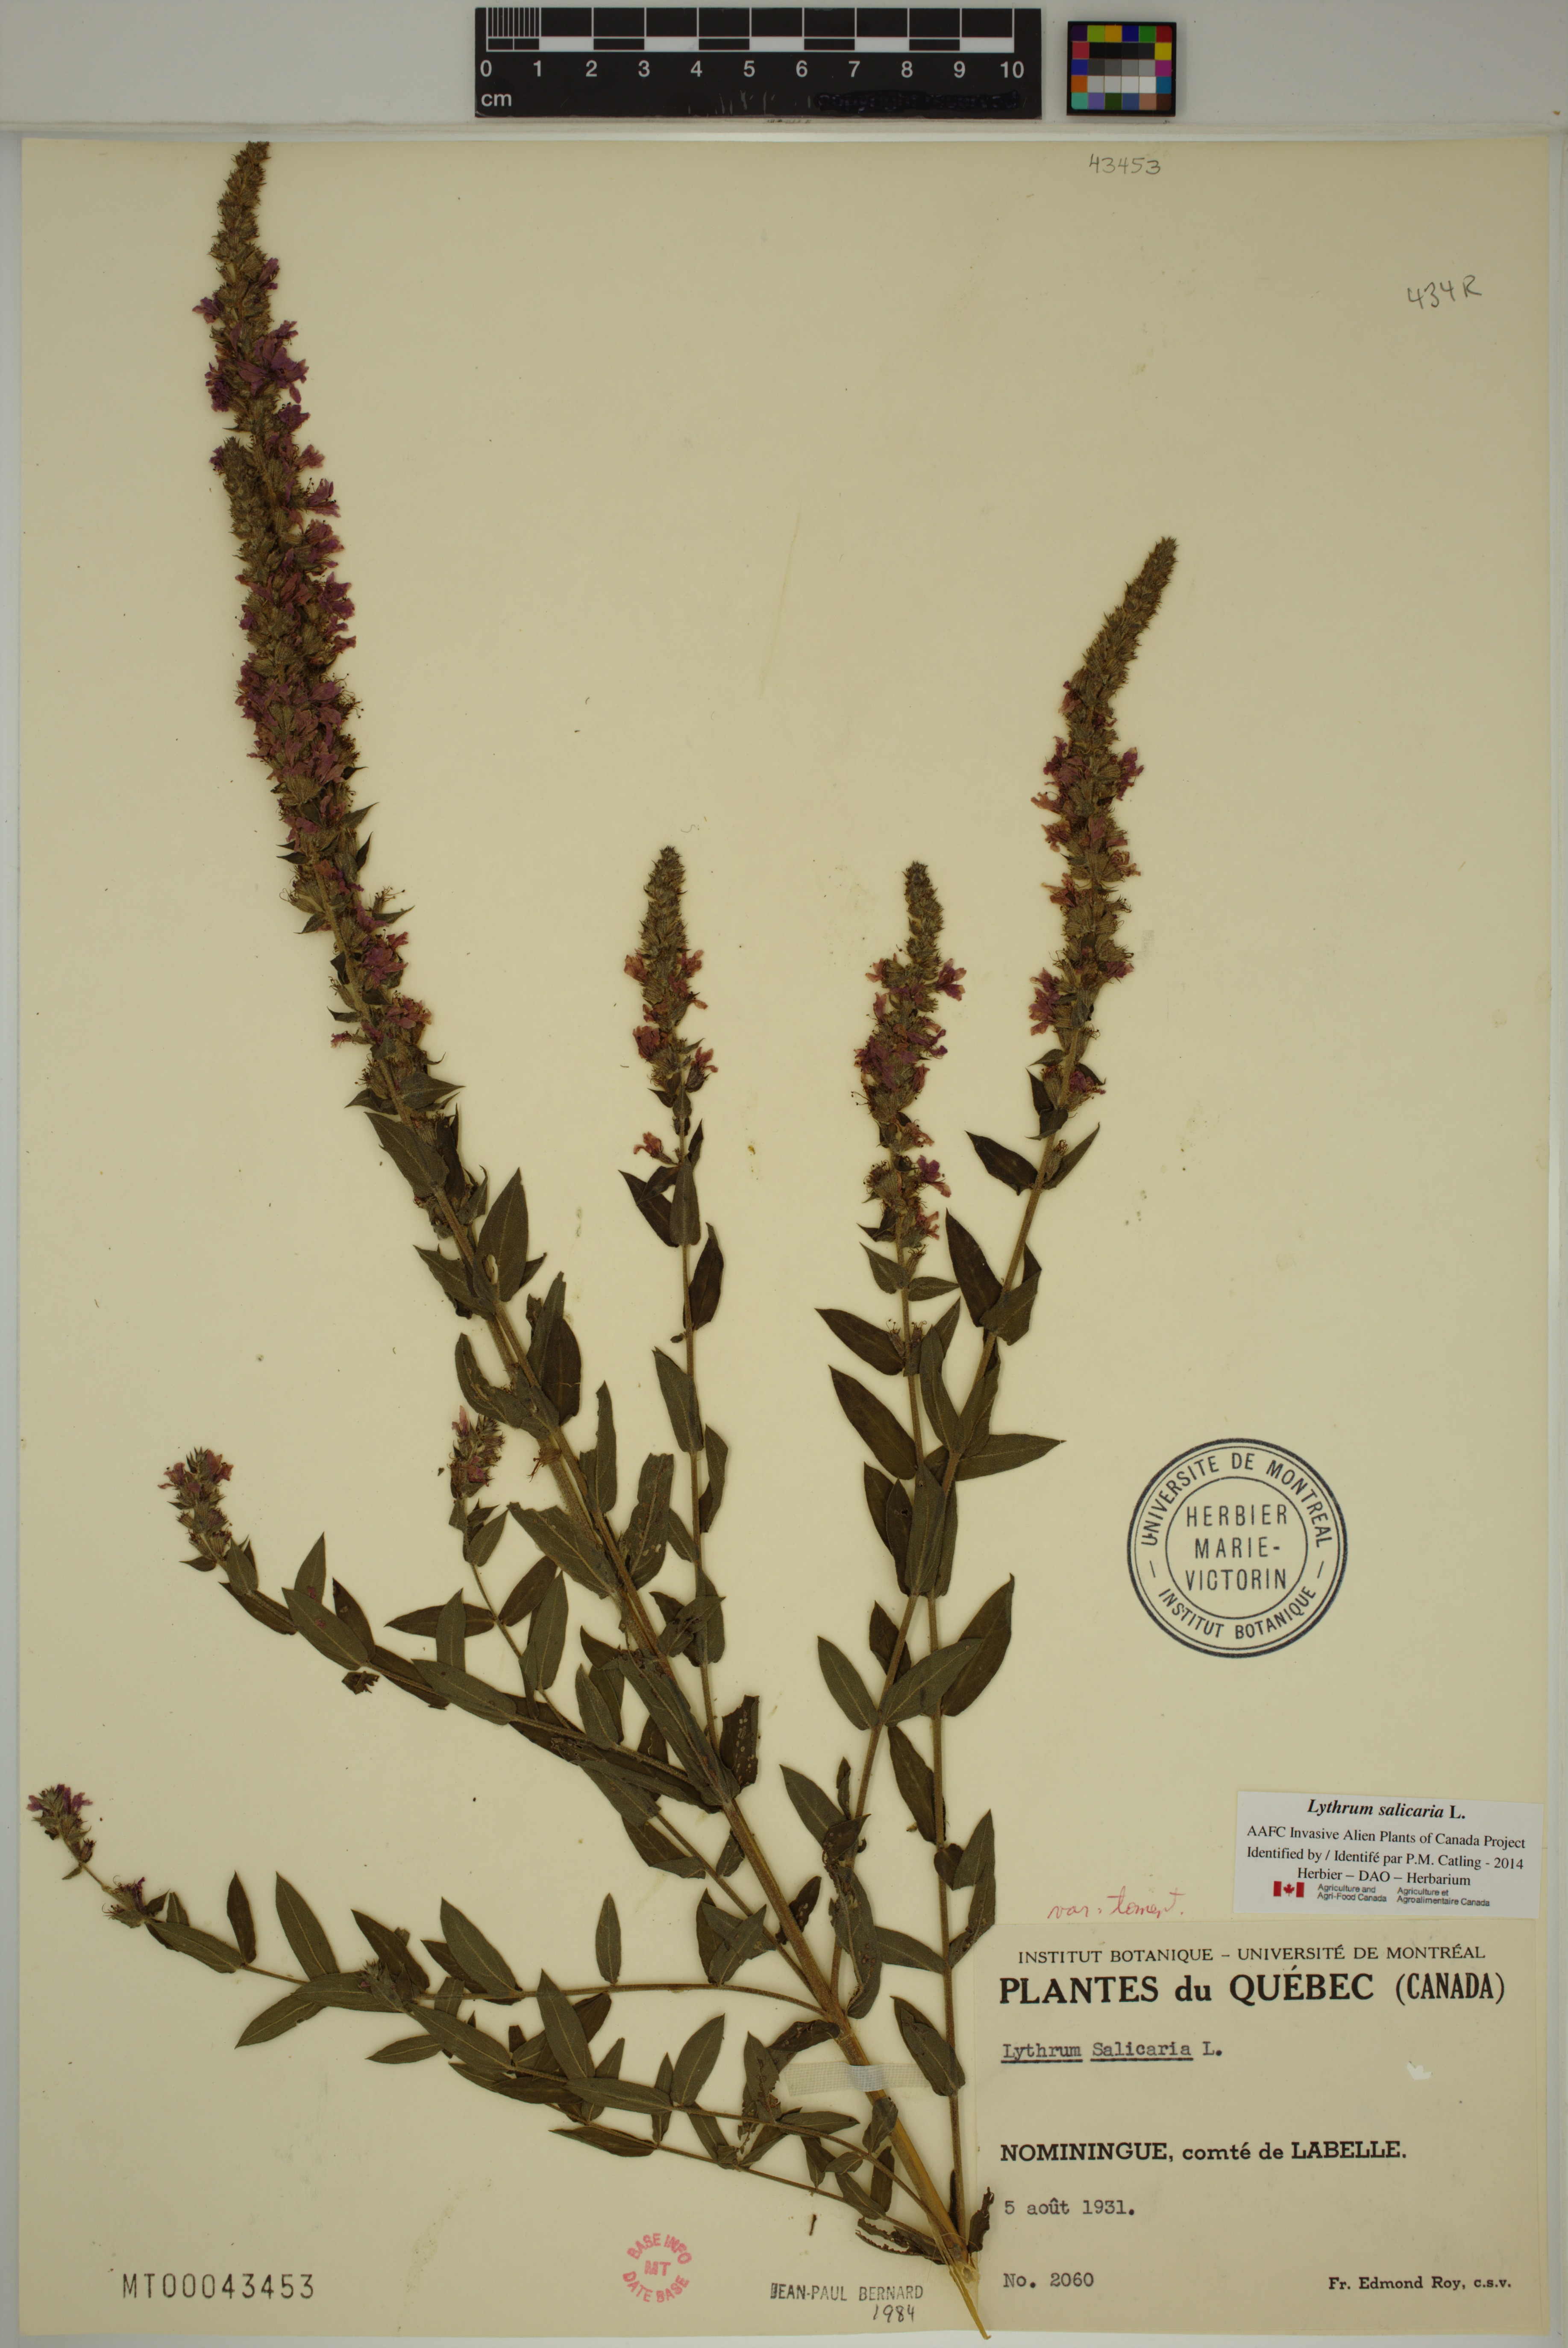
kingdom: Plantae
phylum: Tracheophyta
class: Magnoliopsida
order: Myrtales
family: Lythraceae
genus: Lythrum
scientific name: Lythrum salicaria
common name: Purple loosestrife
